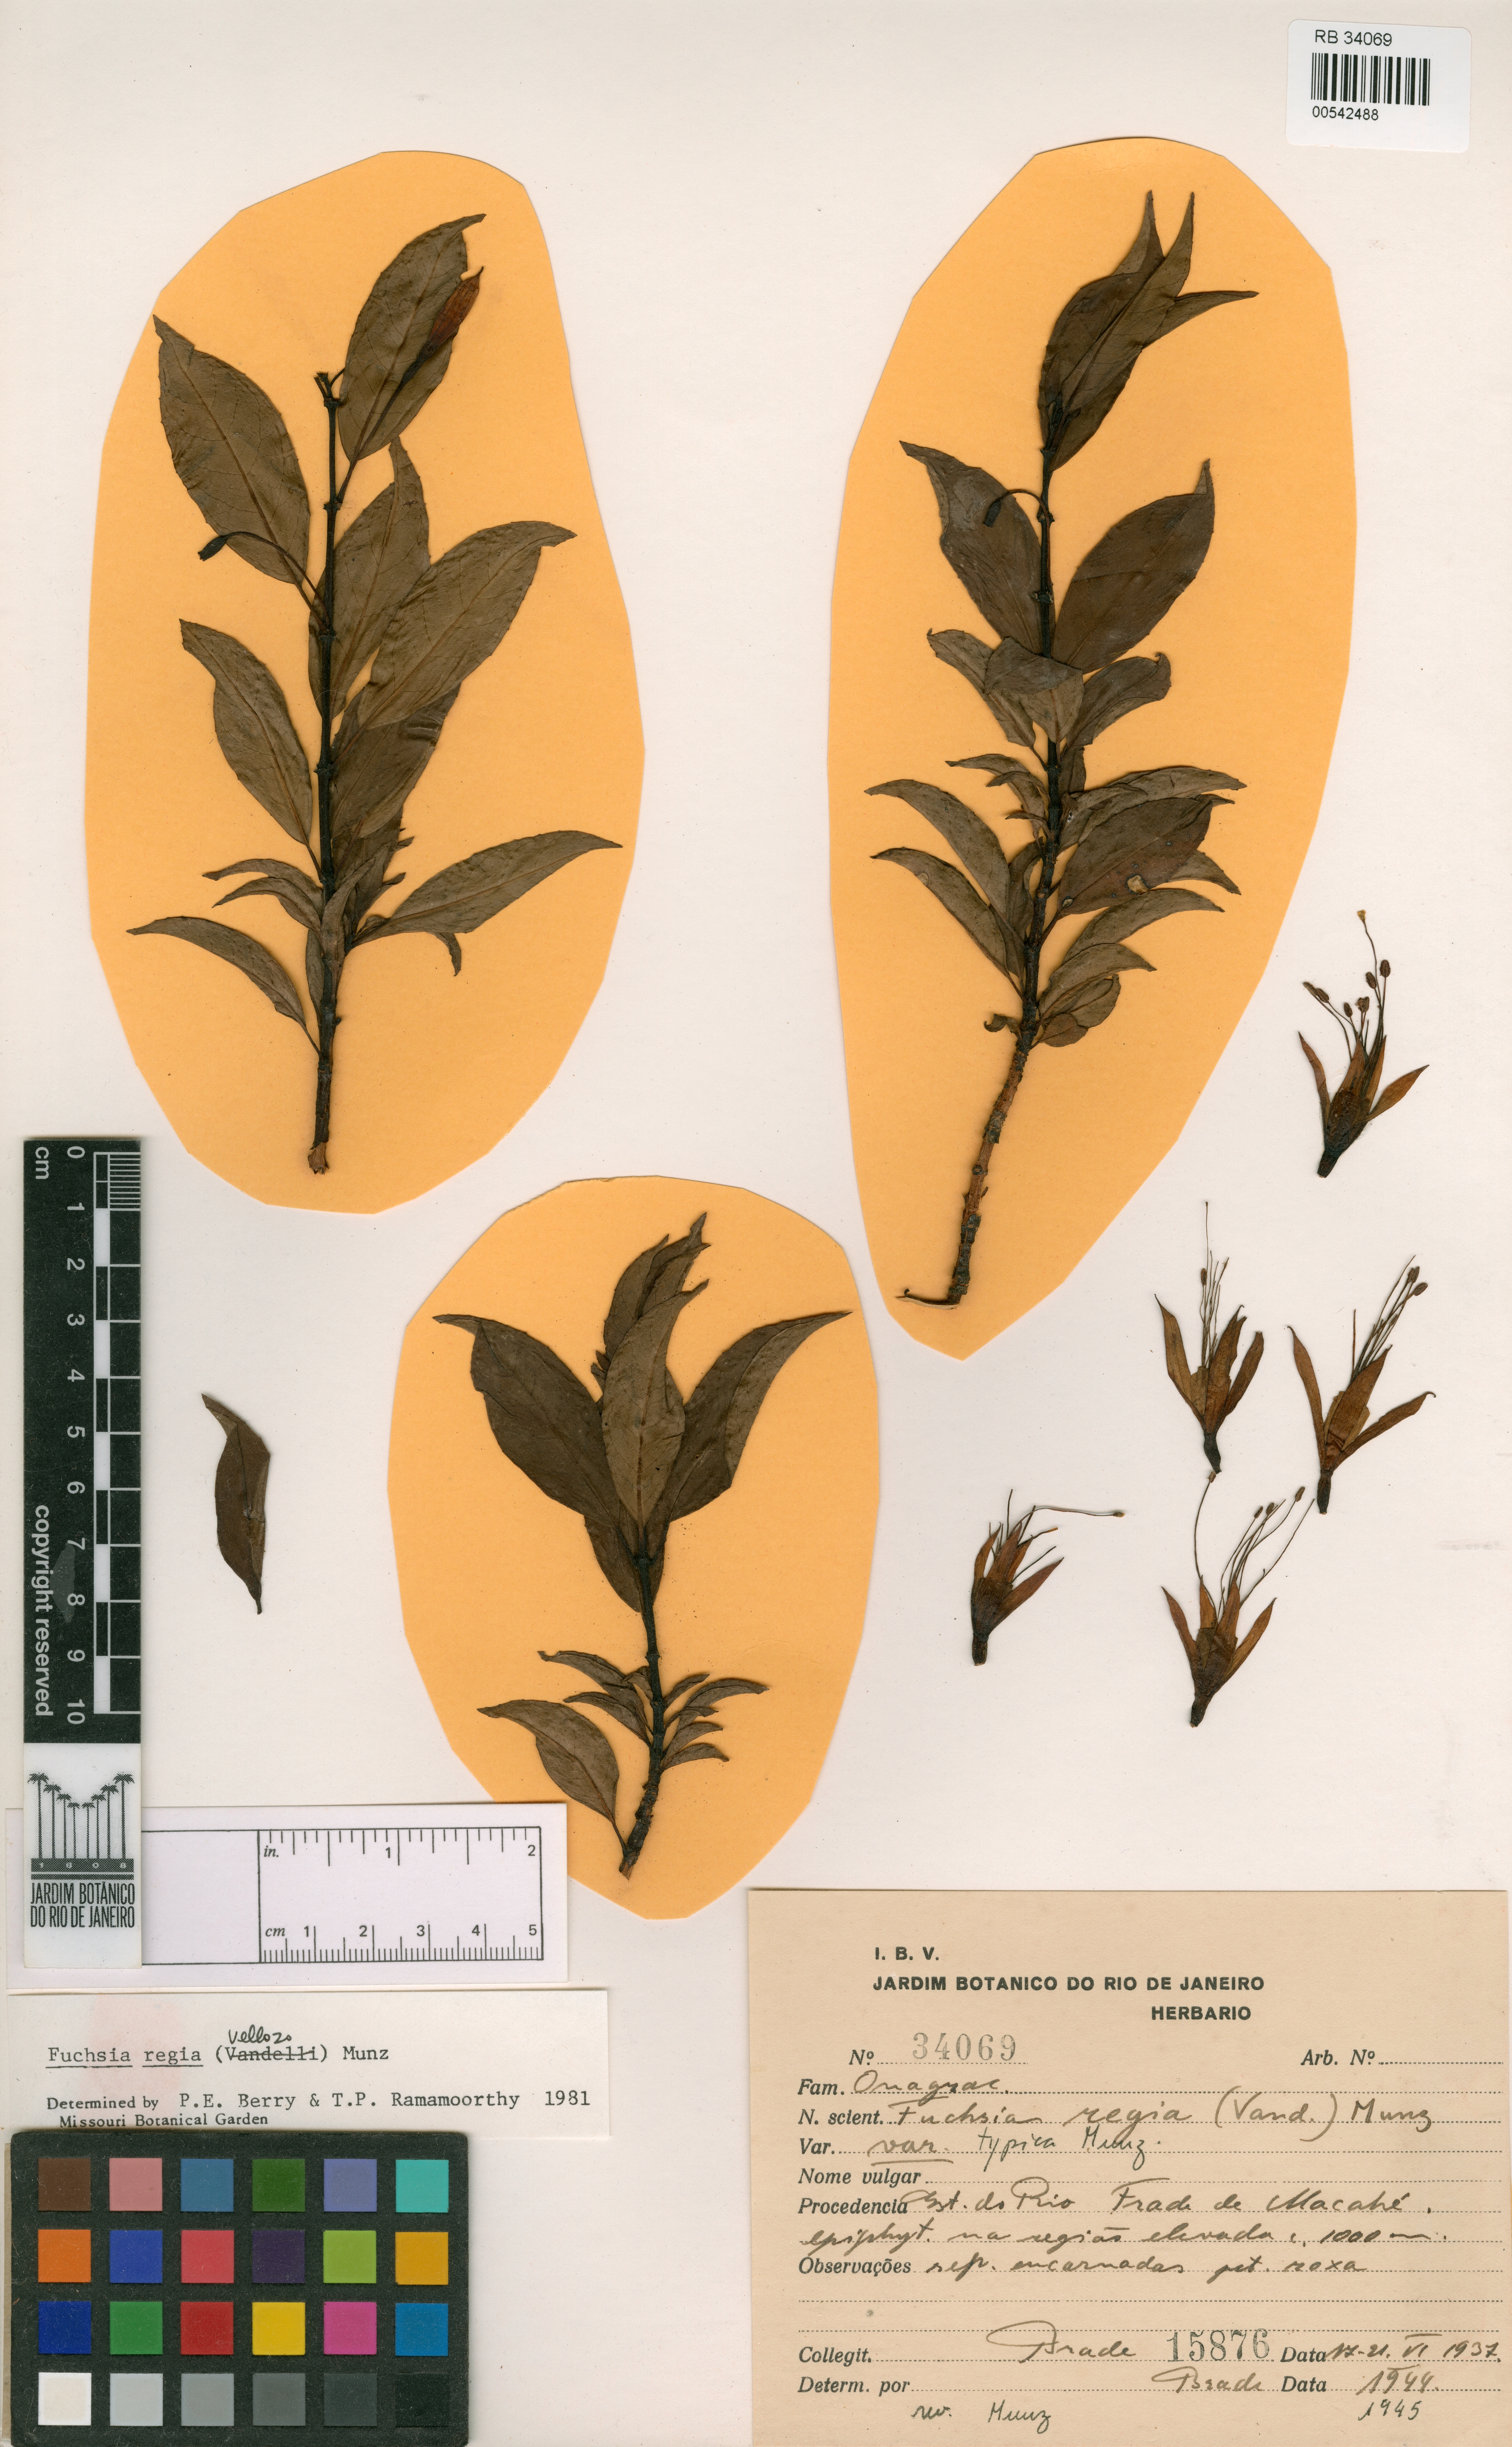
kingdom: Plantae
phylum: Tracheophyta
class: Magnoliopsida
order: Myrtales
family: Onagraceae
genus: Fuchsia
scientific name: Fuchsia regia
